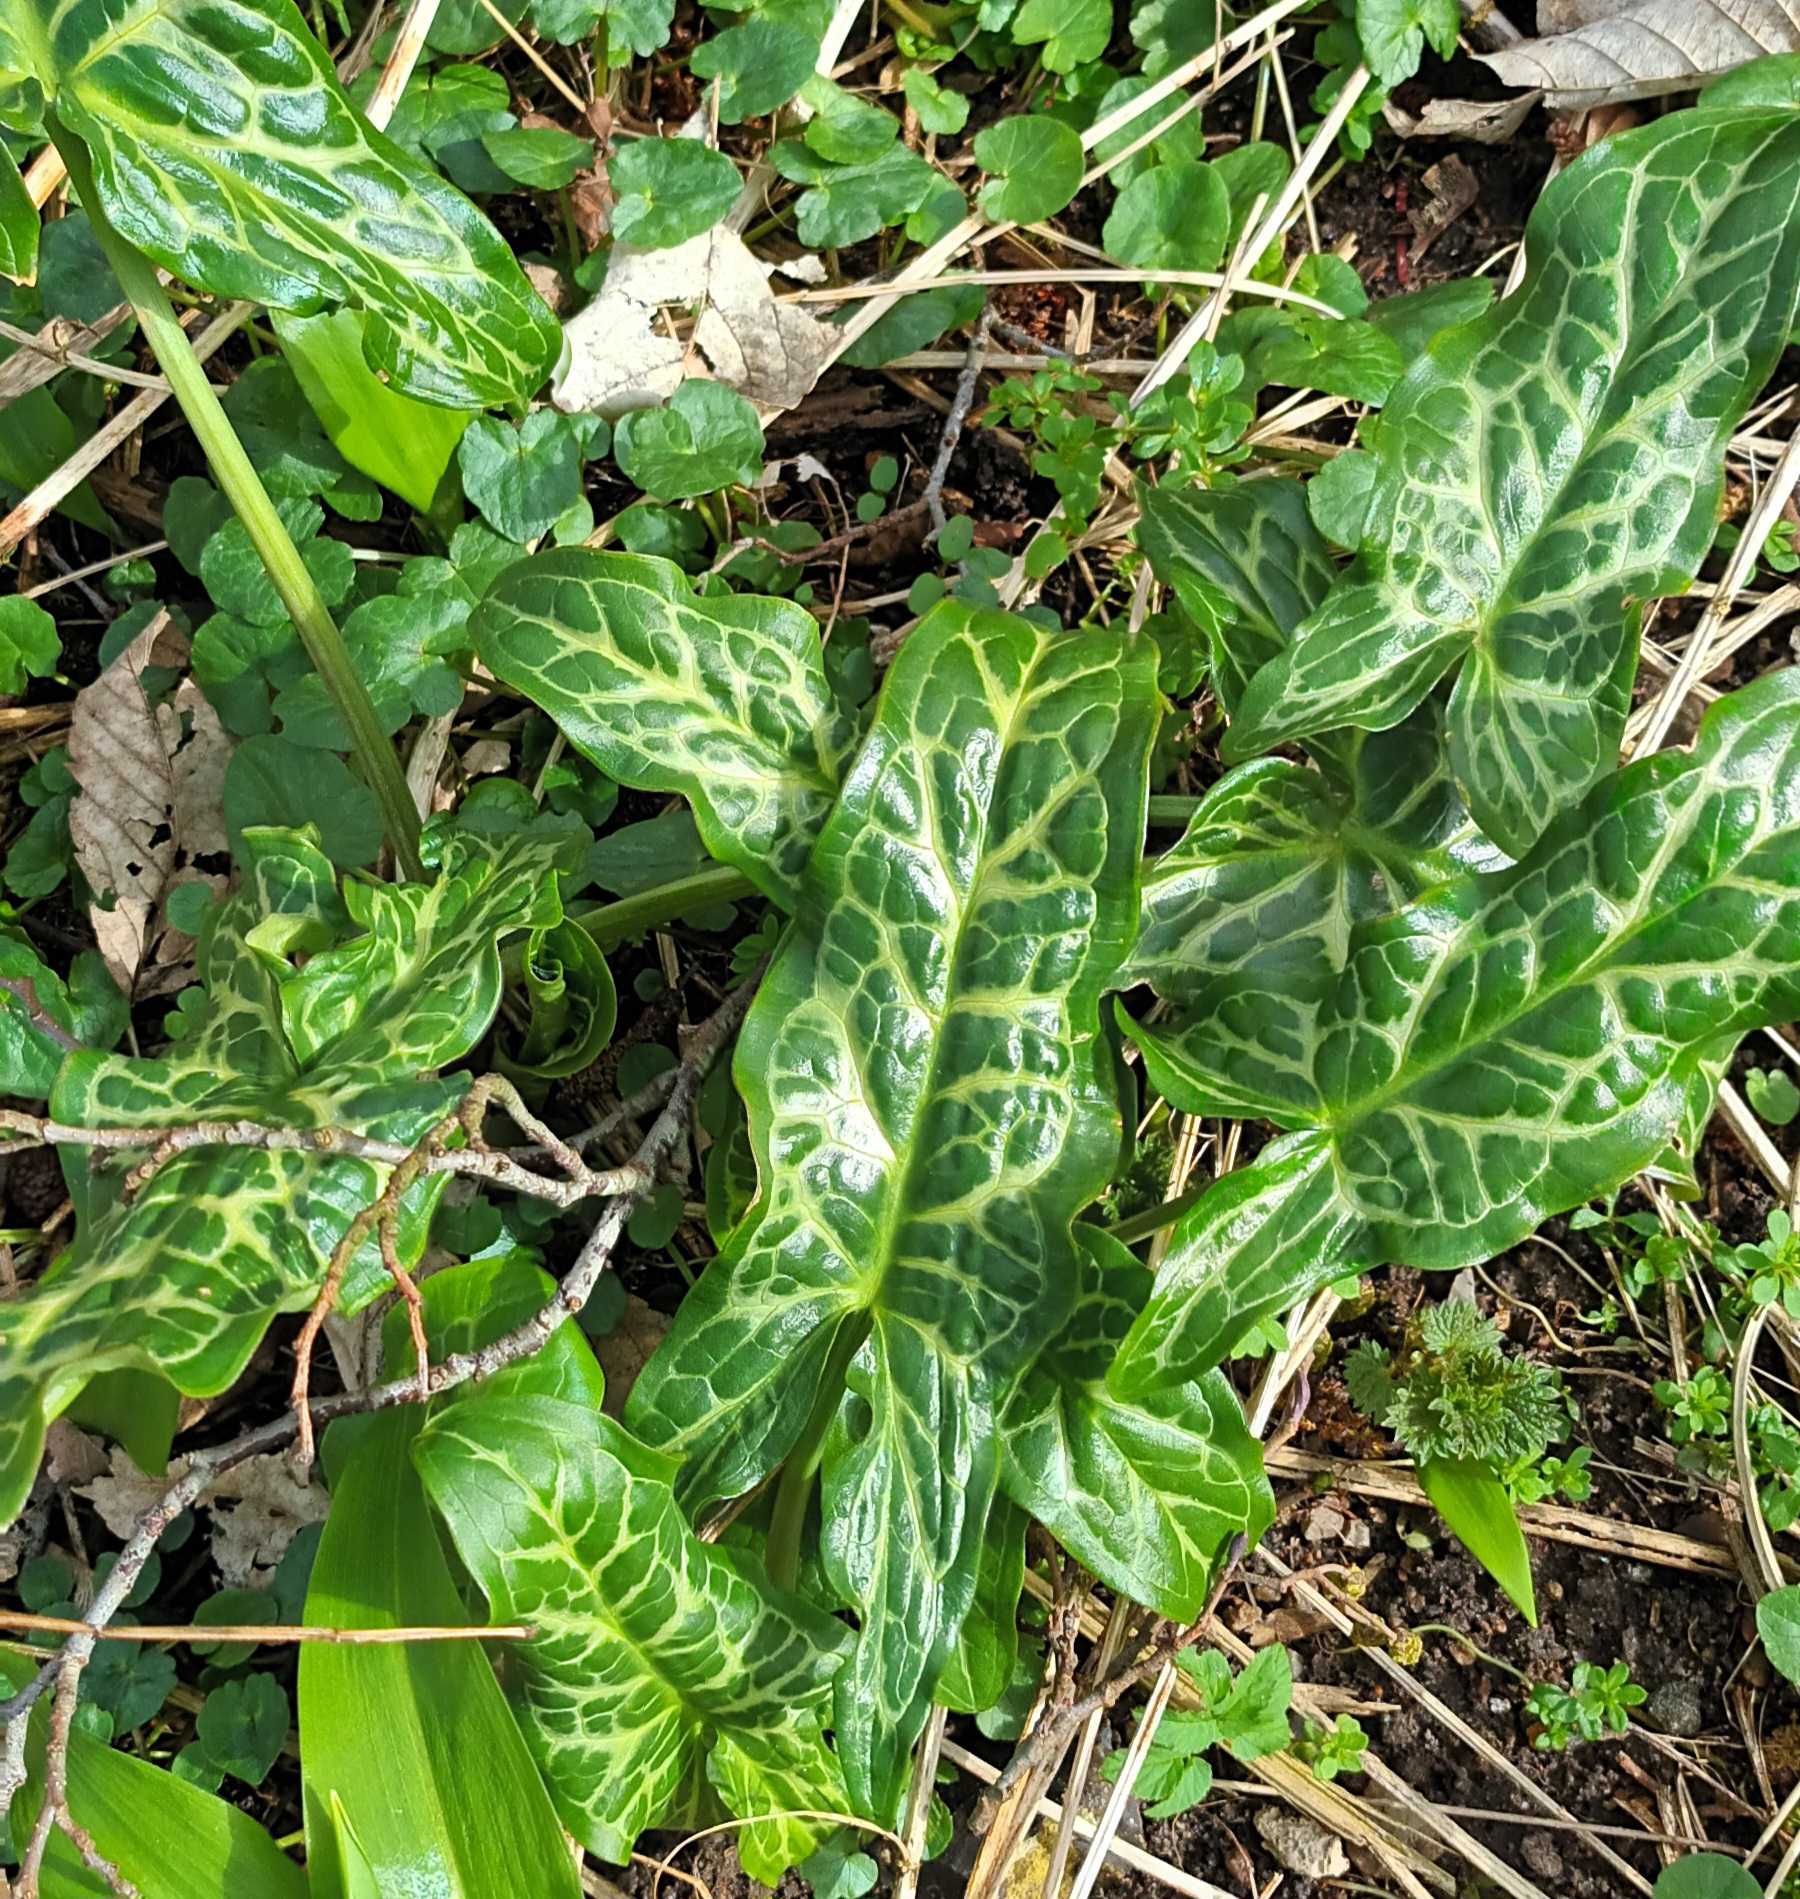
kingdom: Plantae
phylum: Tracheophyta
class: Liliopsida
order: Alismatales
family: Araceae
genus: Arum
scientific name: Arum italicum
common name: Italiensk arum
